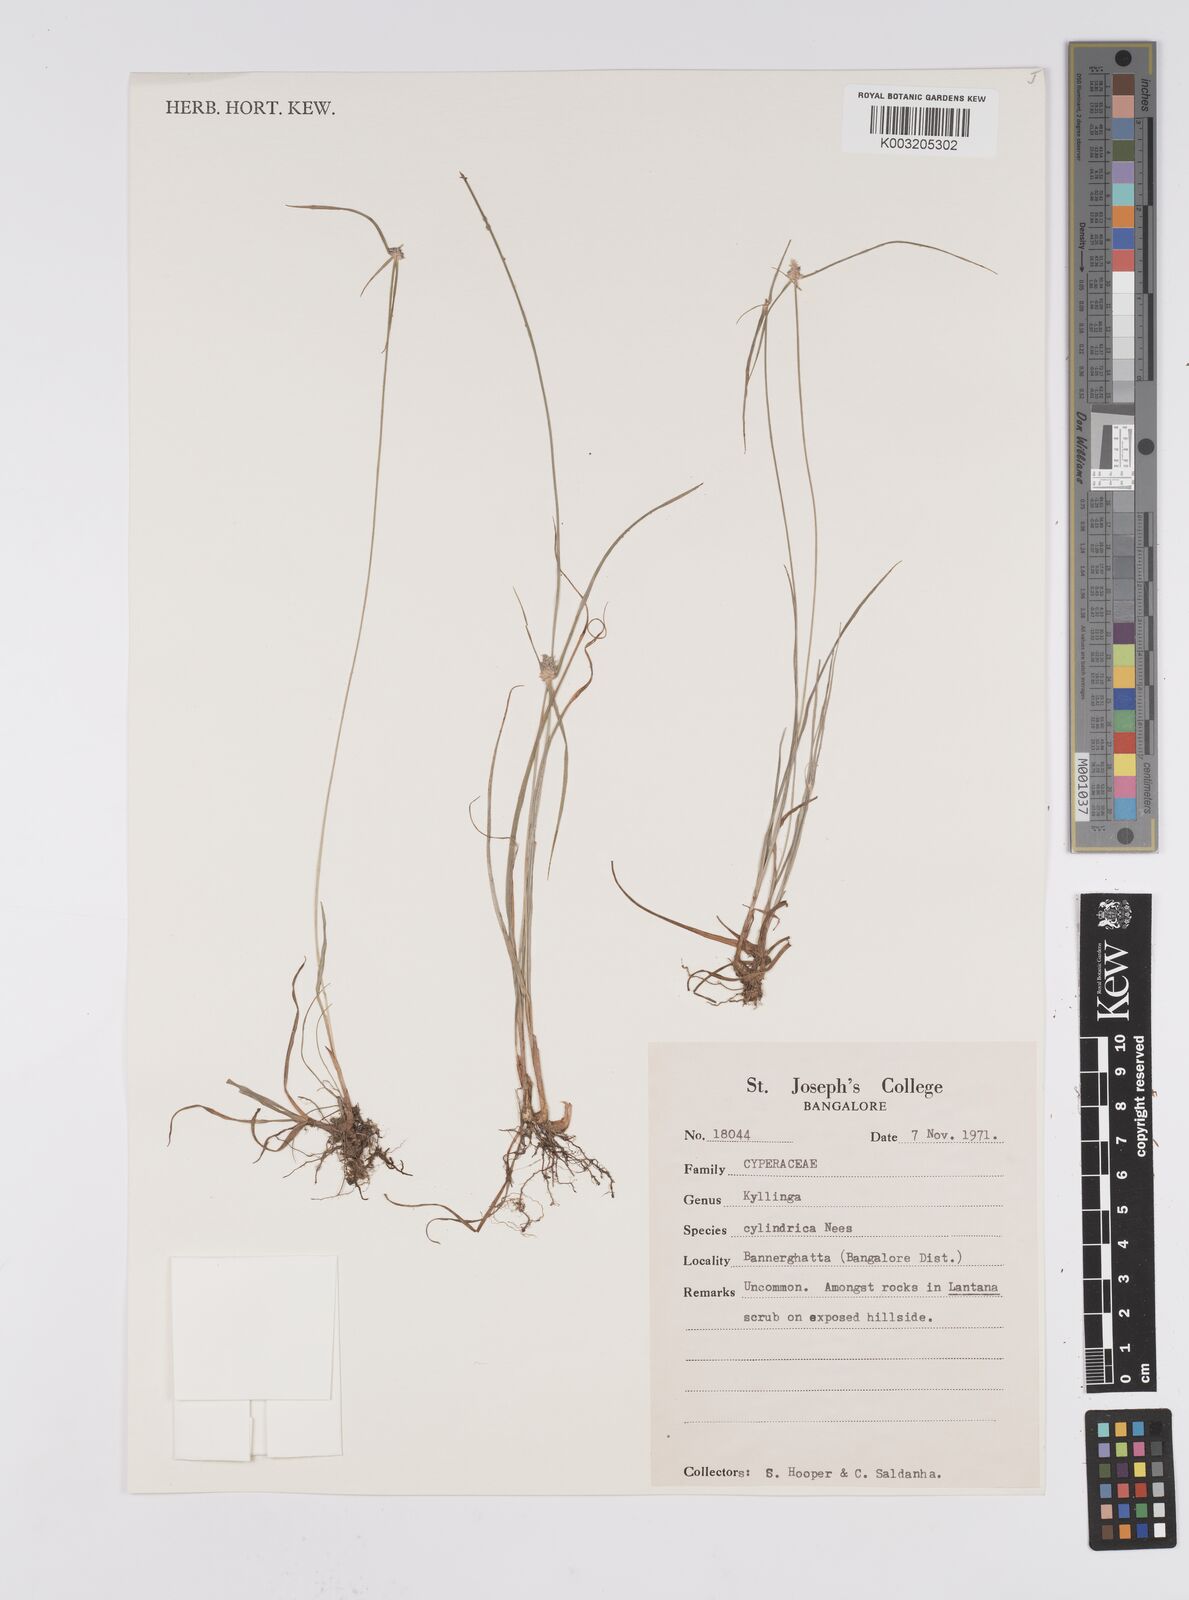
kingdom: Plantae
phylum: Tracheophyta
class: Liliopsida
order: Poales
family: Cyperaceae
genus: Cyperus
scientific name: Cyperus
